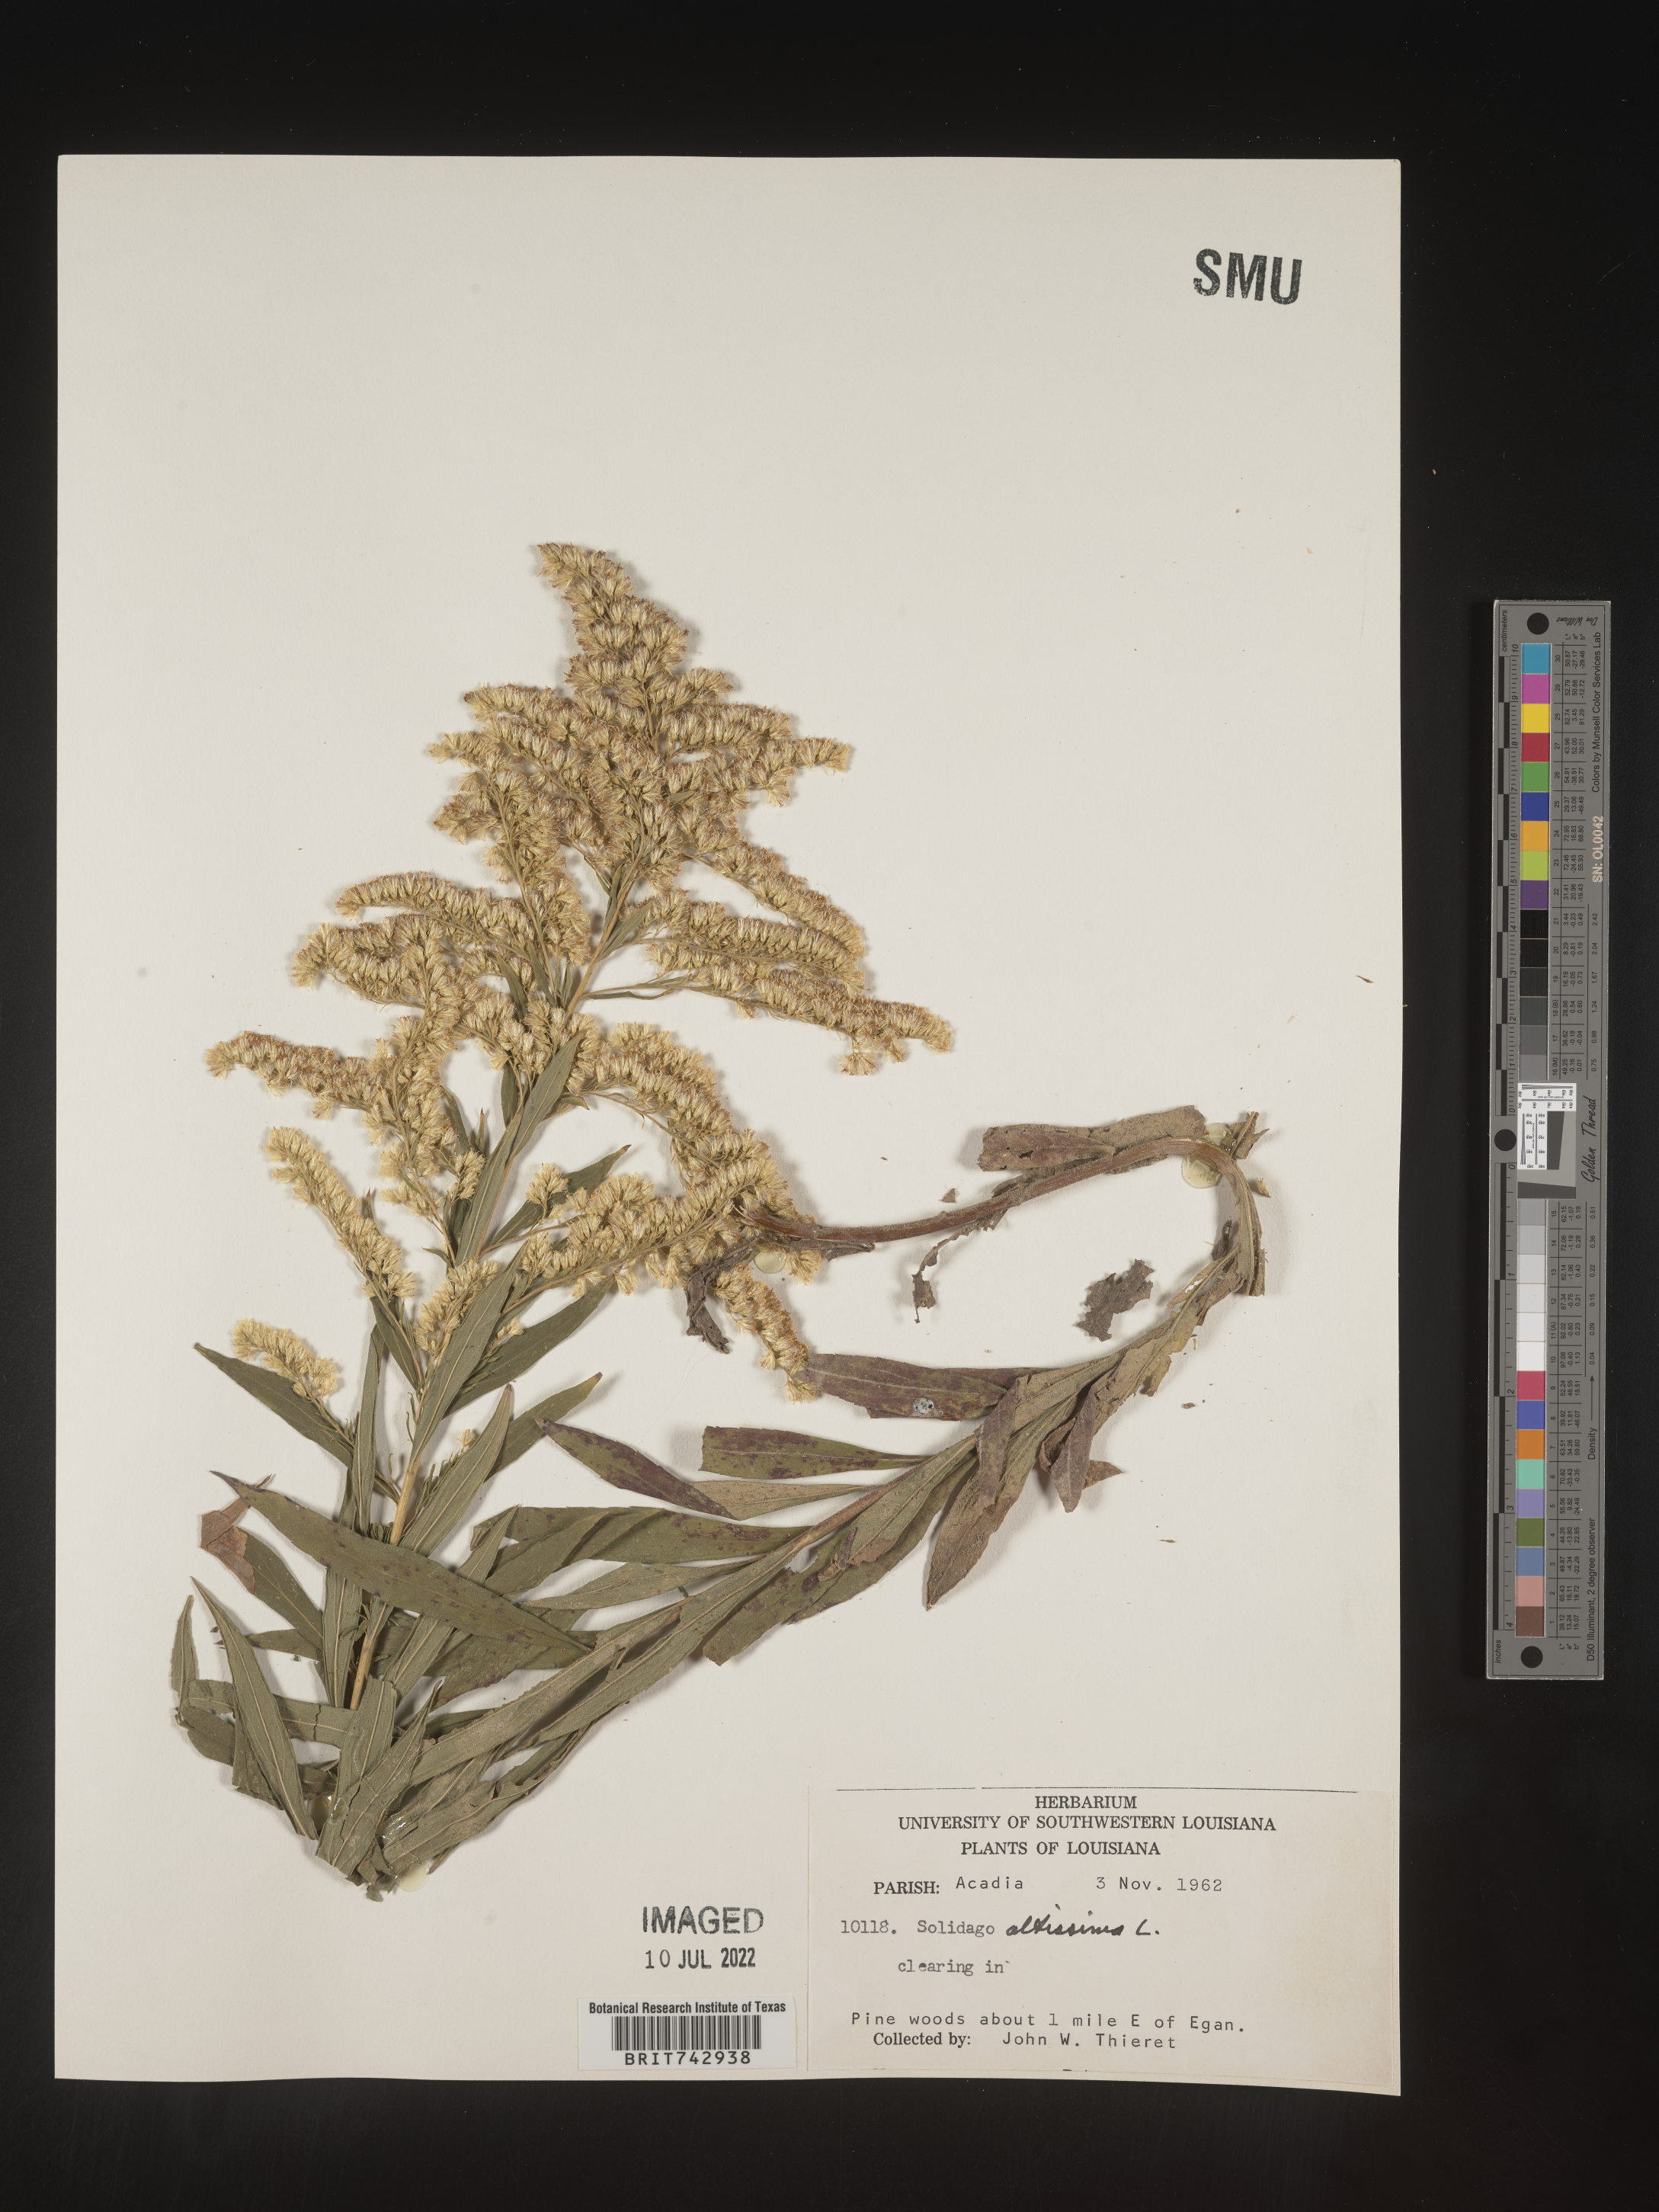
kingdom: Plantae
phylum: Tracheophyta
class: Magnoliopsida
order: Asterales
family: Asteraceae
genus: Solidago
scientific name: Solidago altissima
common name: Late goldenrod
